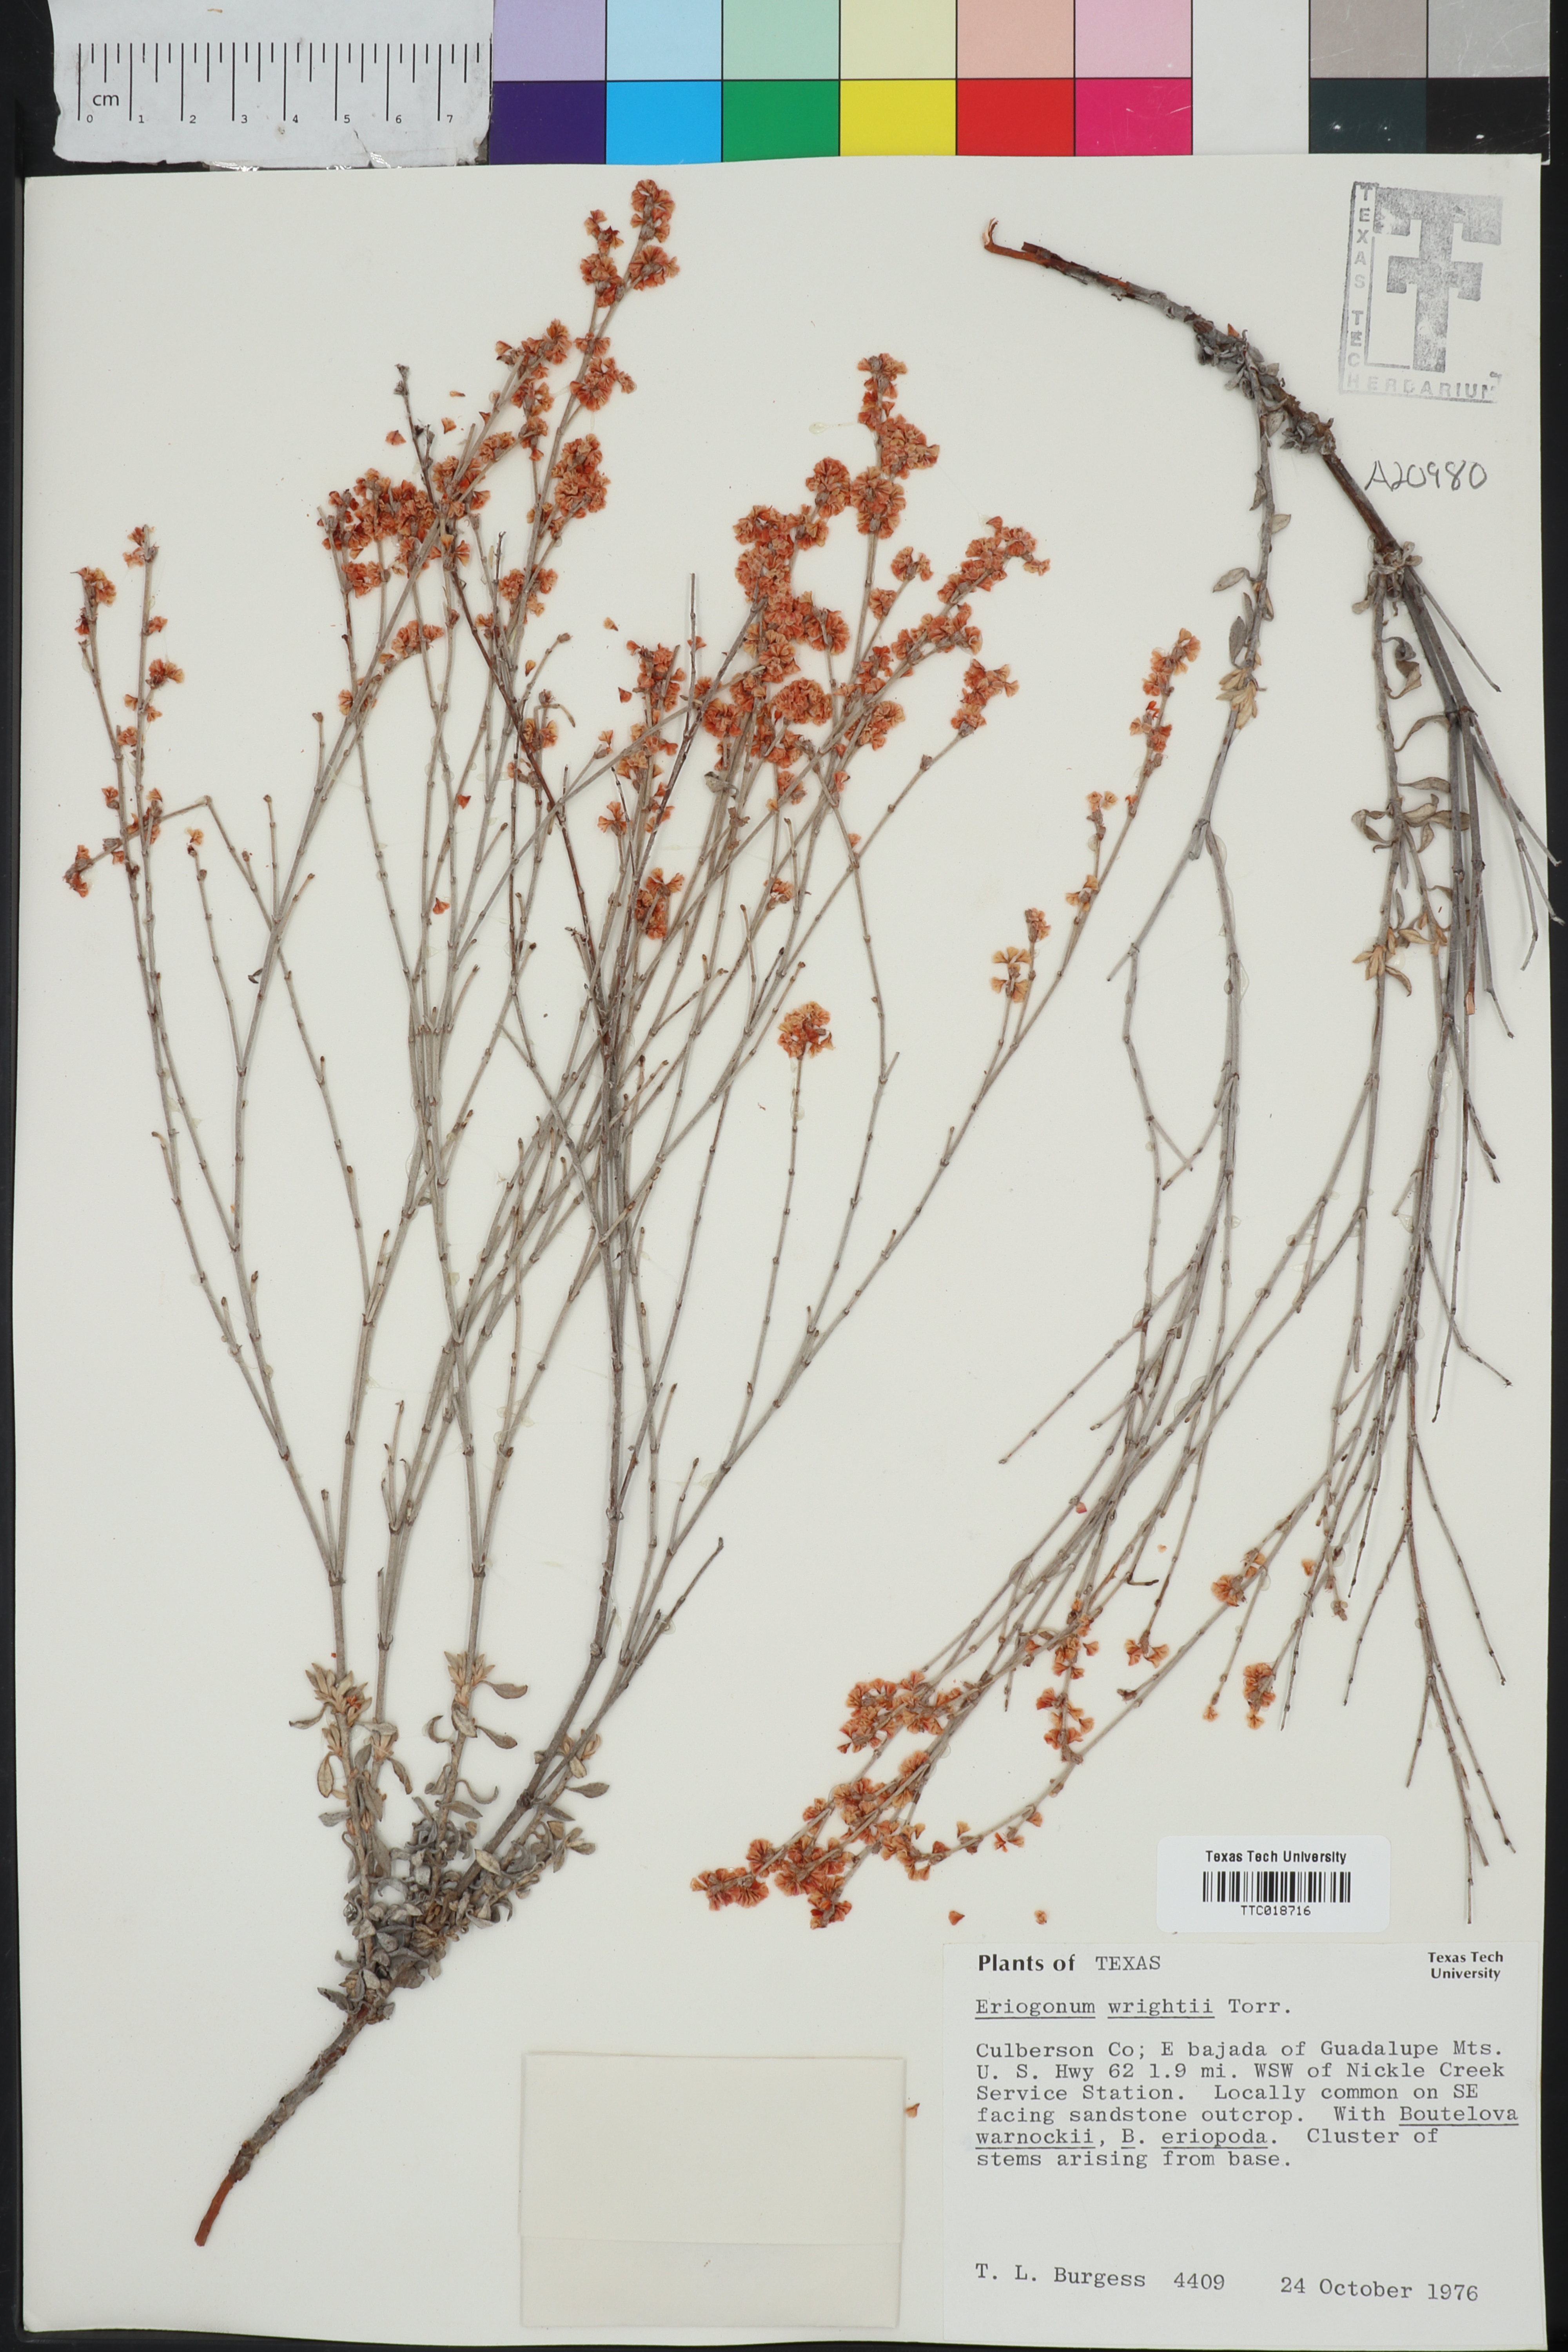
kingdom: Plantae
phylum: Tracheophyta
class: Magnoliopsida
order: Caryophyllales
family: Polygonaceae
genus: Eriogonum
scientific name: Eriogonum wrightii
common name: Bastard-sage
